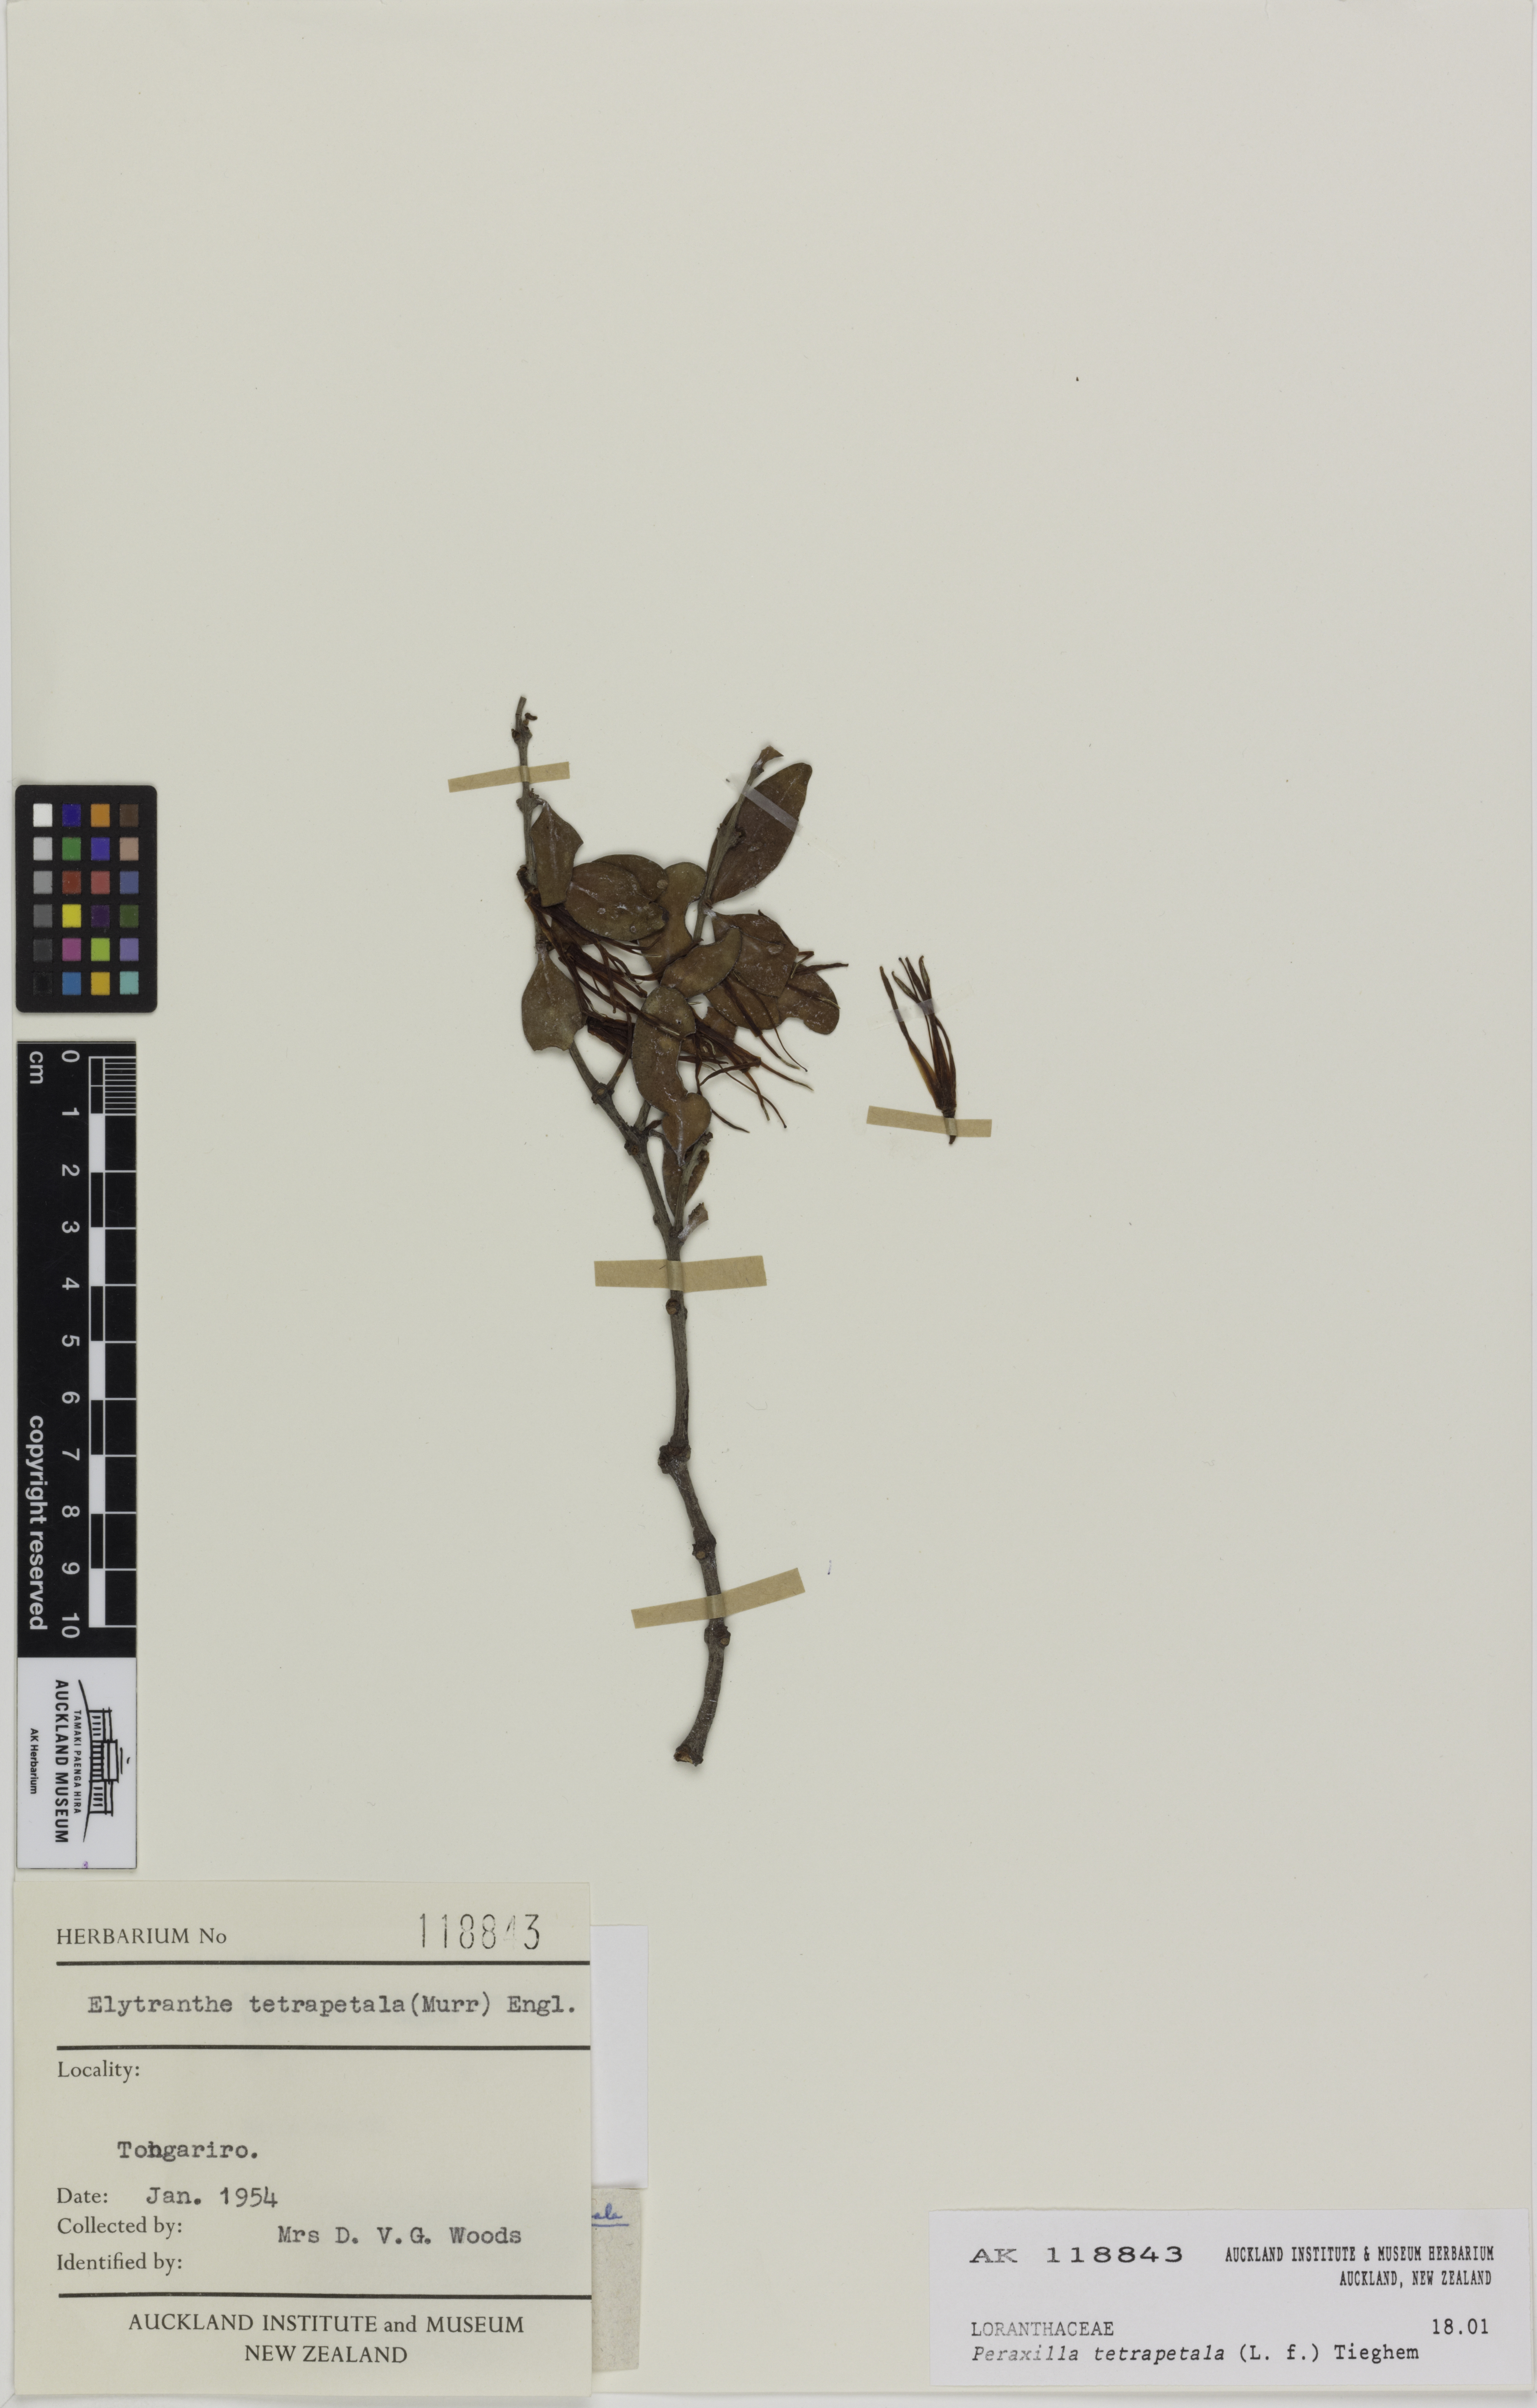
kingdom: Plantae
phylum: Tracheophyta
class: Magnoliopsida
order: Santalales
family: Loranthaceae
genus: Peraxilla
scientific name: Peraxilla tetrapetala
